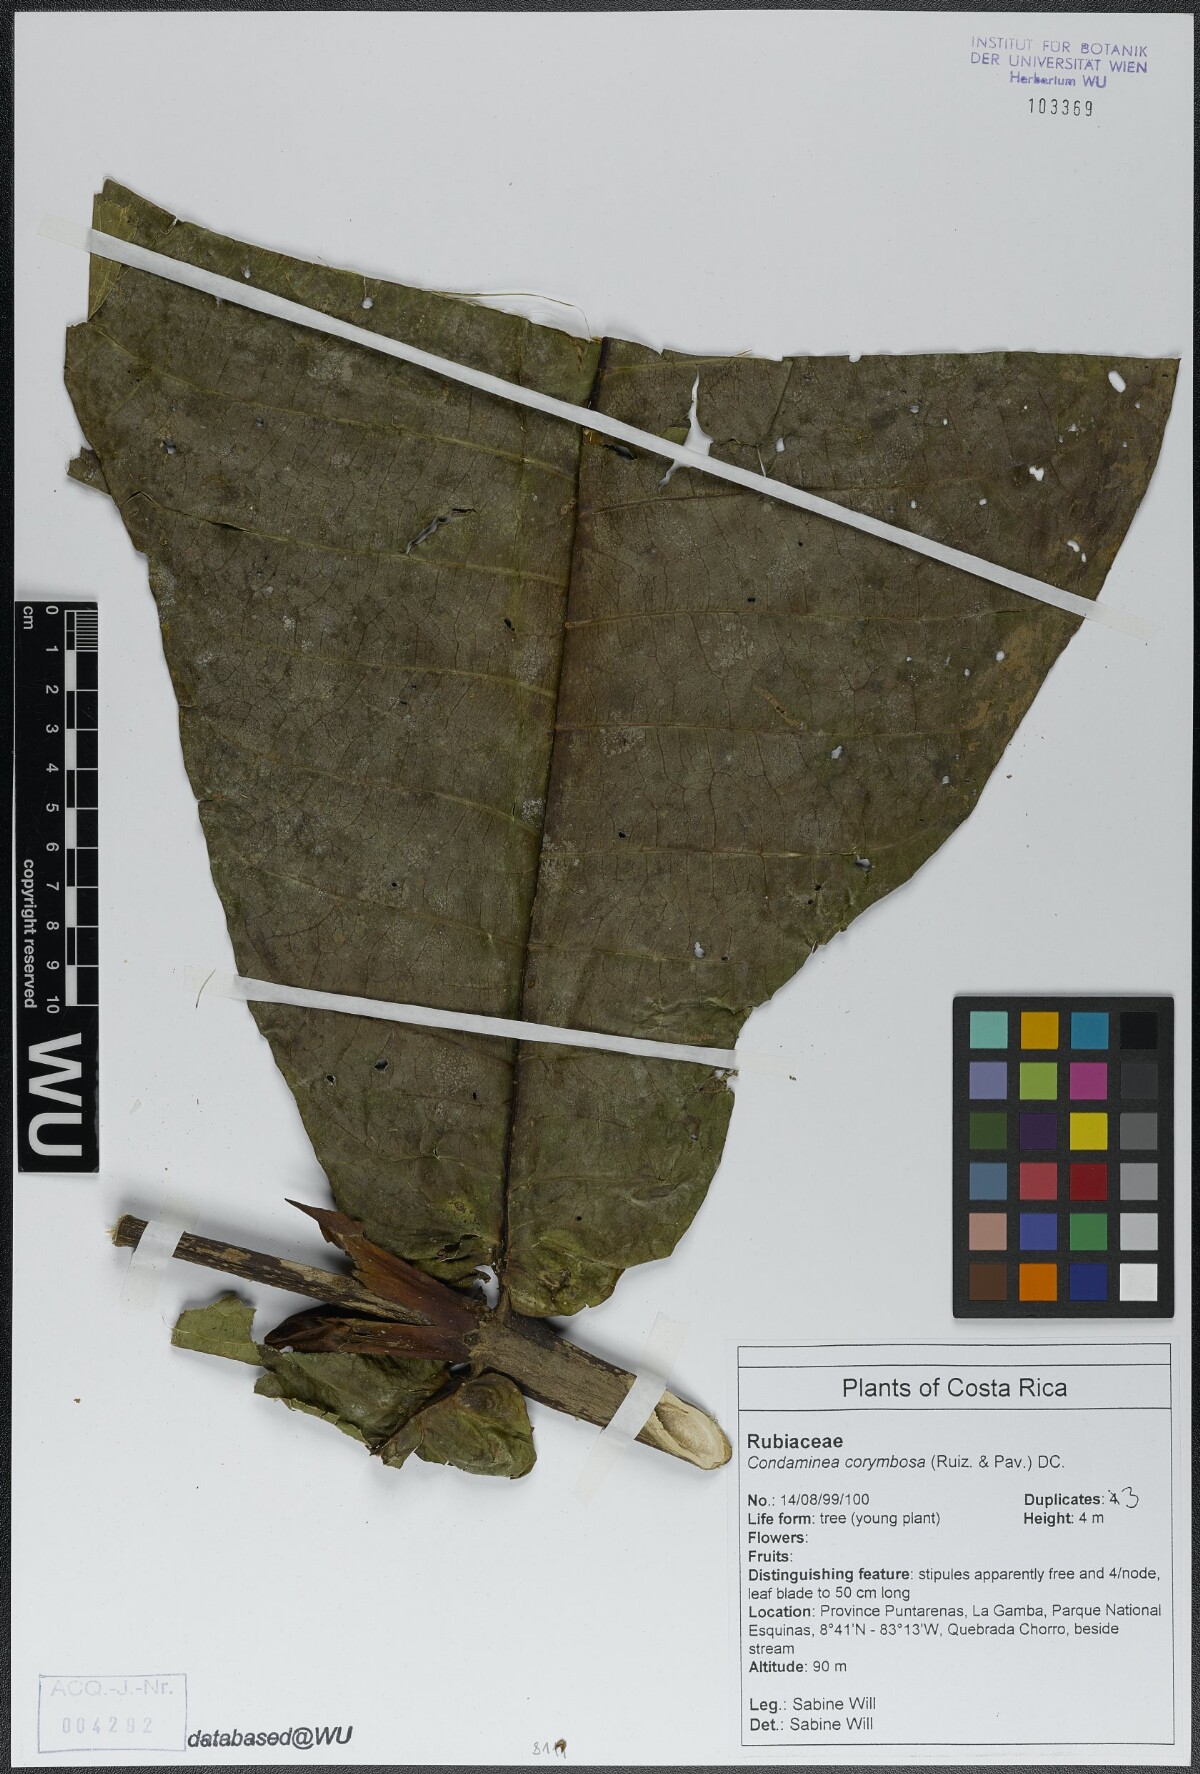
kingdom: Plantae
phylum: Tracheophyta
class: Magnoliopsida
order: Gentianales
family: Rubiaceae
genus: Condaminea
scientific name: Condaminea corymbosa
